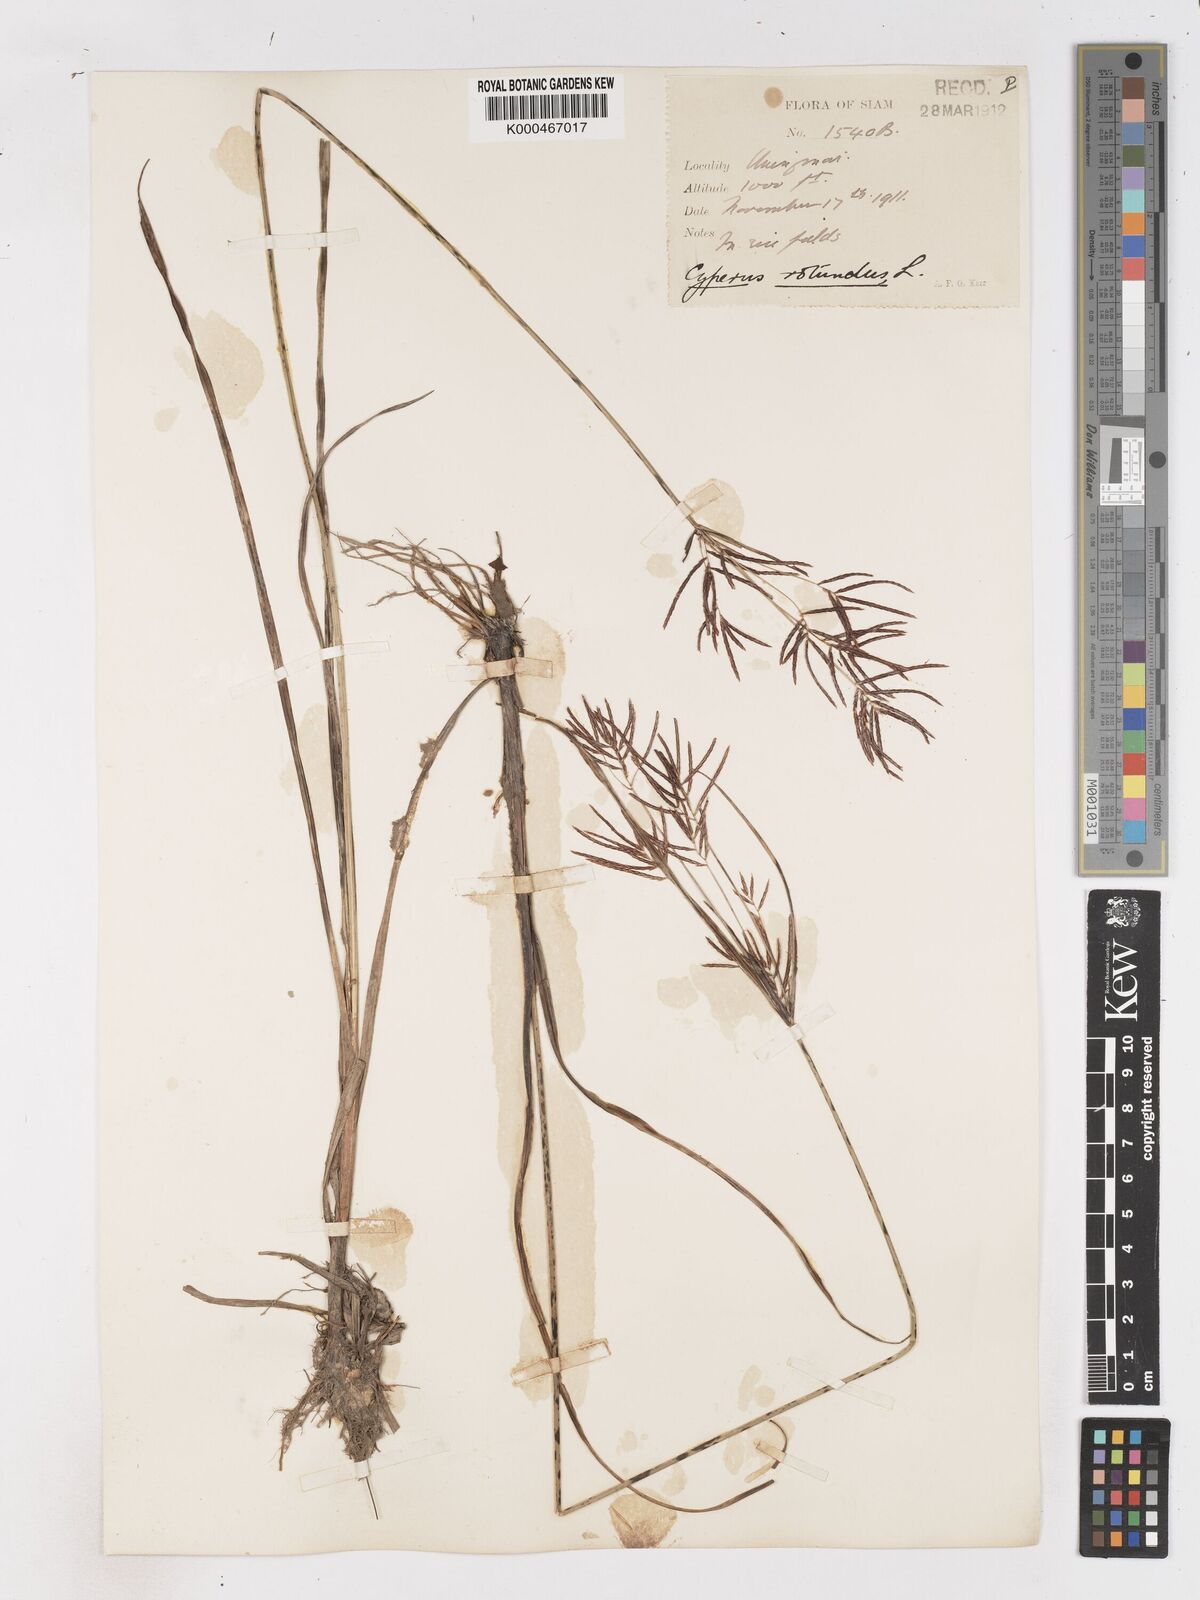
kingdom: Plantae
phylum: Tracheophyta
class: Liliopsida
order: Poales
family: Cyperaceae
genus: Cyperus
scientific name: Cyperus rotundus
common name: Nutgrass
